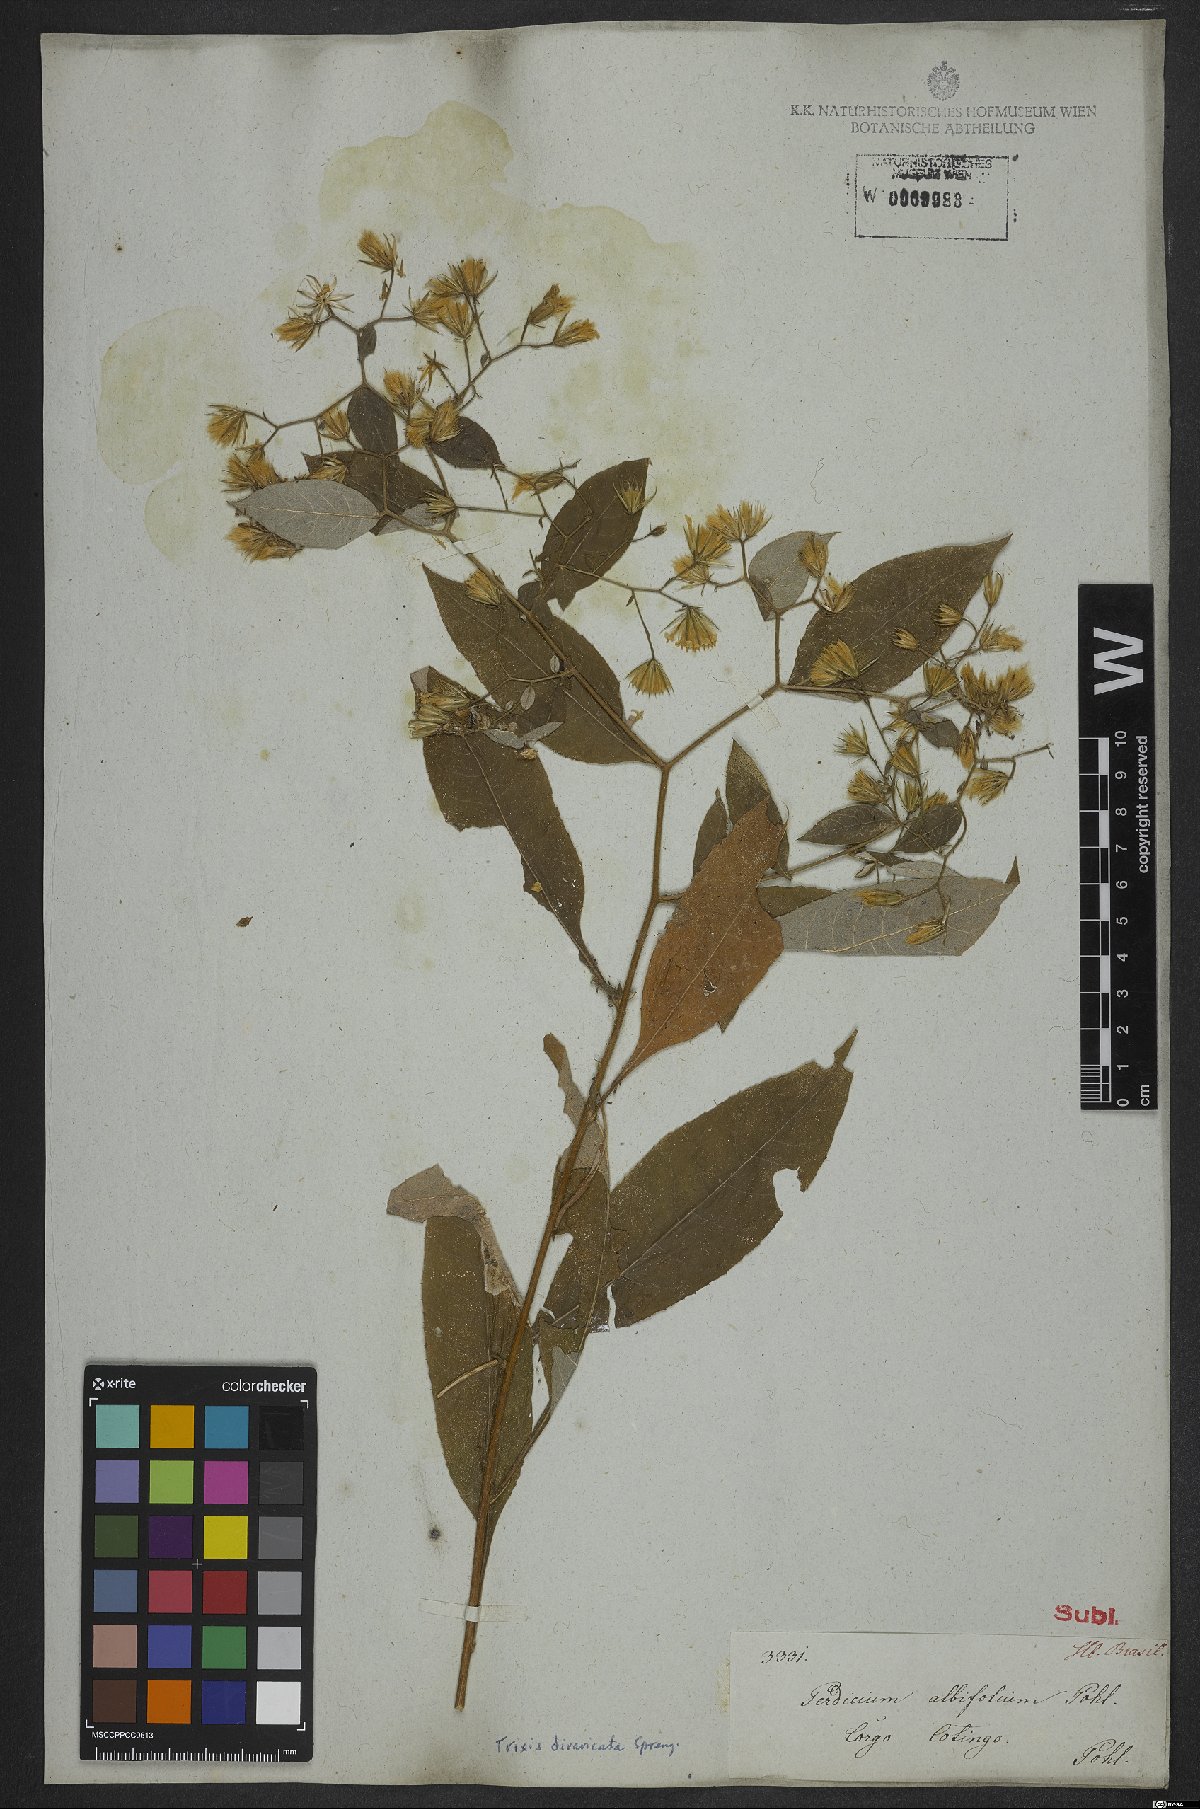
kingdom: Plantae
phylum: Tracheophyta
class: Magnoliopsida
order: Asterales
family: Asteraceae
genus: Trixis
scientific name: Trixis divaricata
